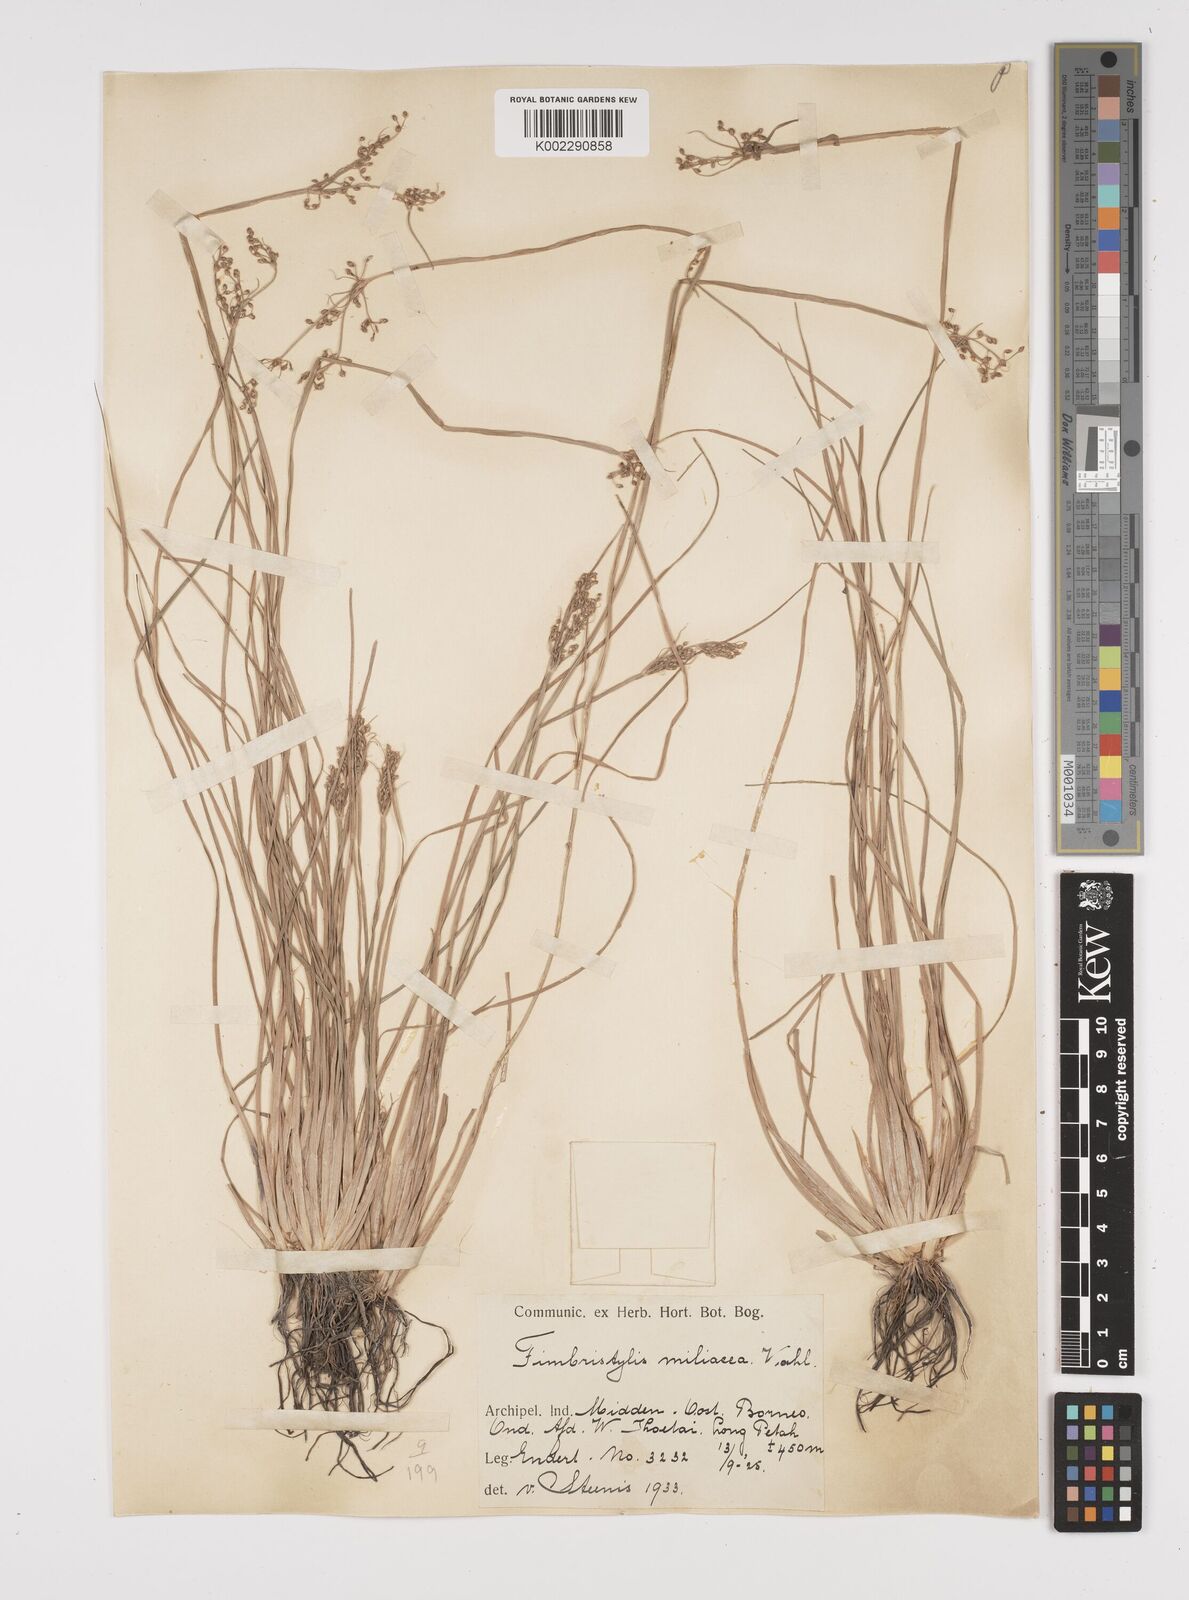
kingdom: Plantae
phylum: Tracheophyta
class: Liliopsida
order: Poales
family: Cyperaceae
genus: Fimbristylis
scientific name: Fimbristylis littoralis
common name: Fimbry
